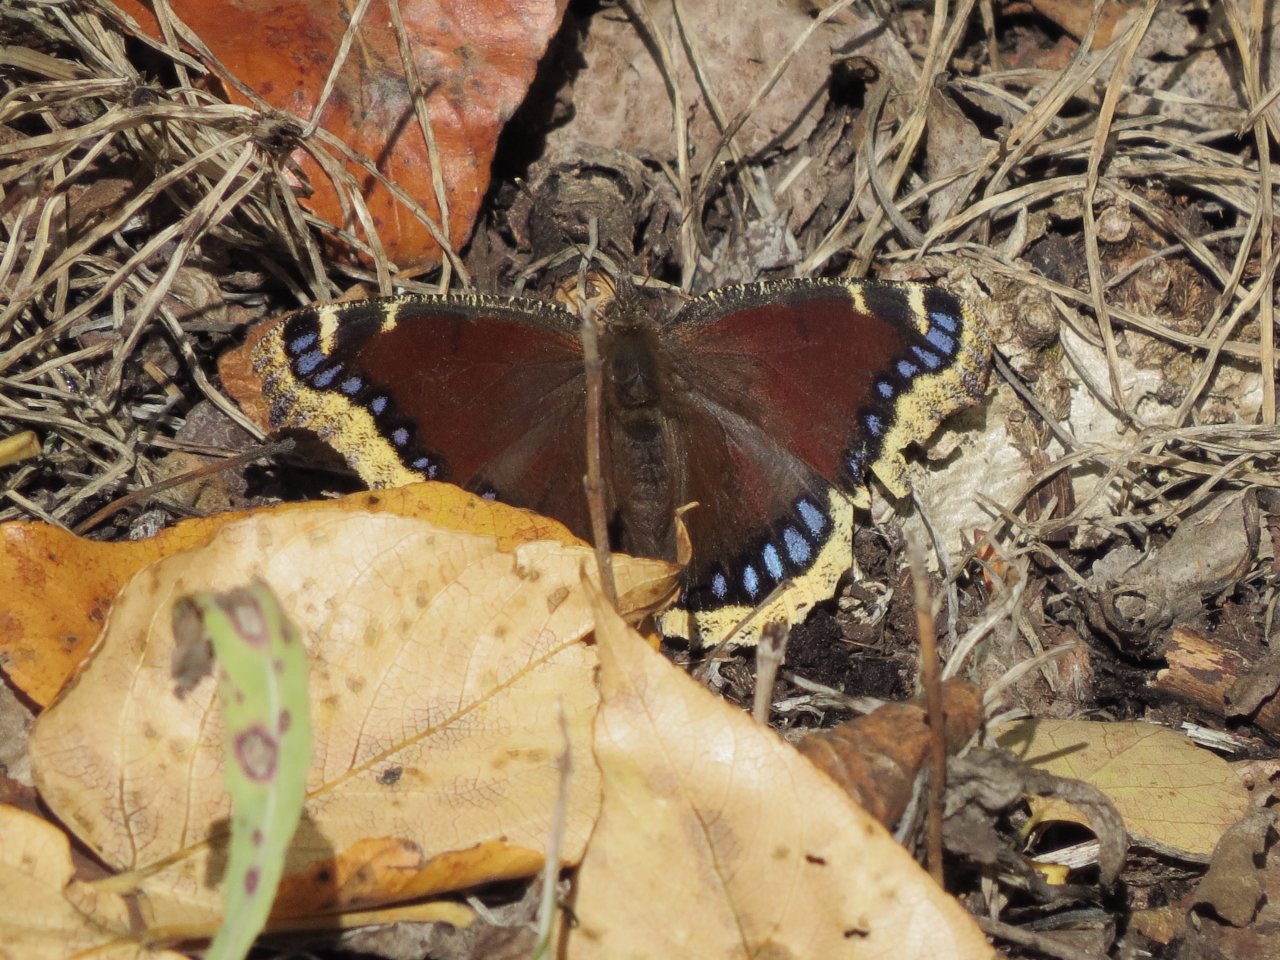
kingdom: Animalia
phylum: Arthropoda
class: Insecta
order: Lepidoptera
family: Nymphalidae
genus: Nymphalis
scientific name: Nymphalis antiopa
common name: Mourning Cloak
